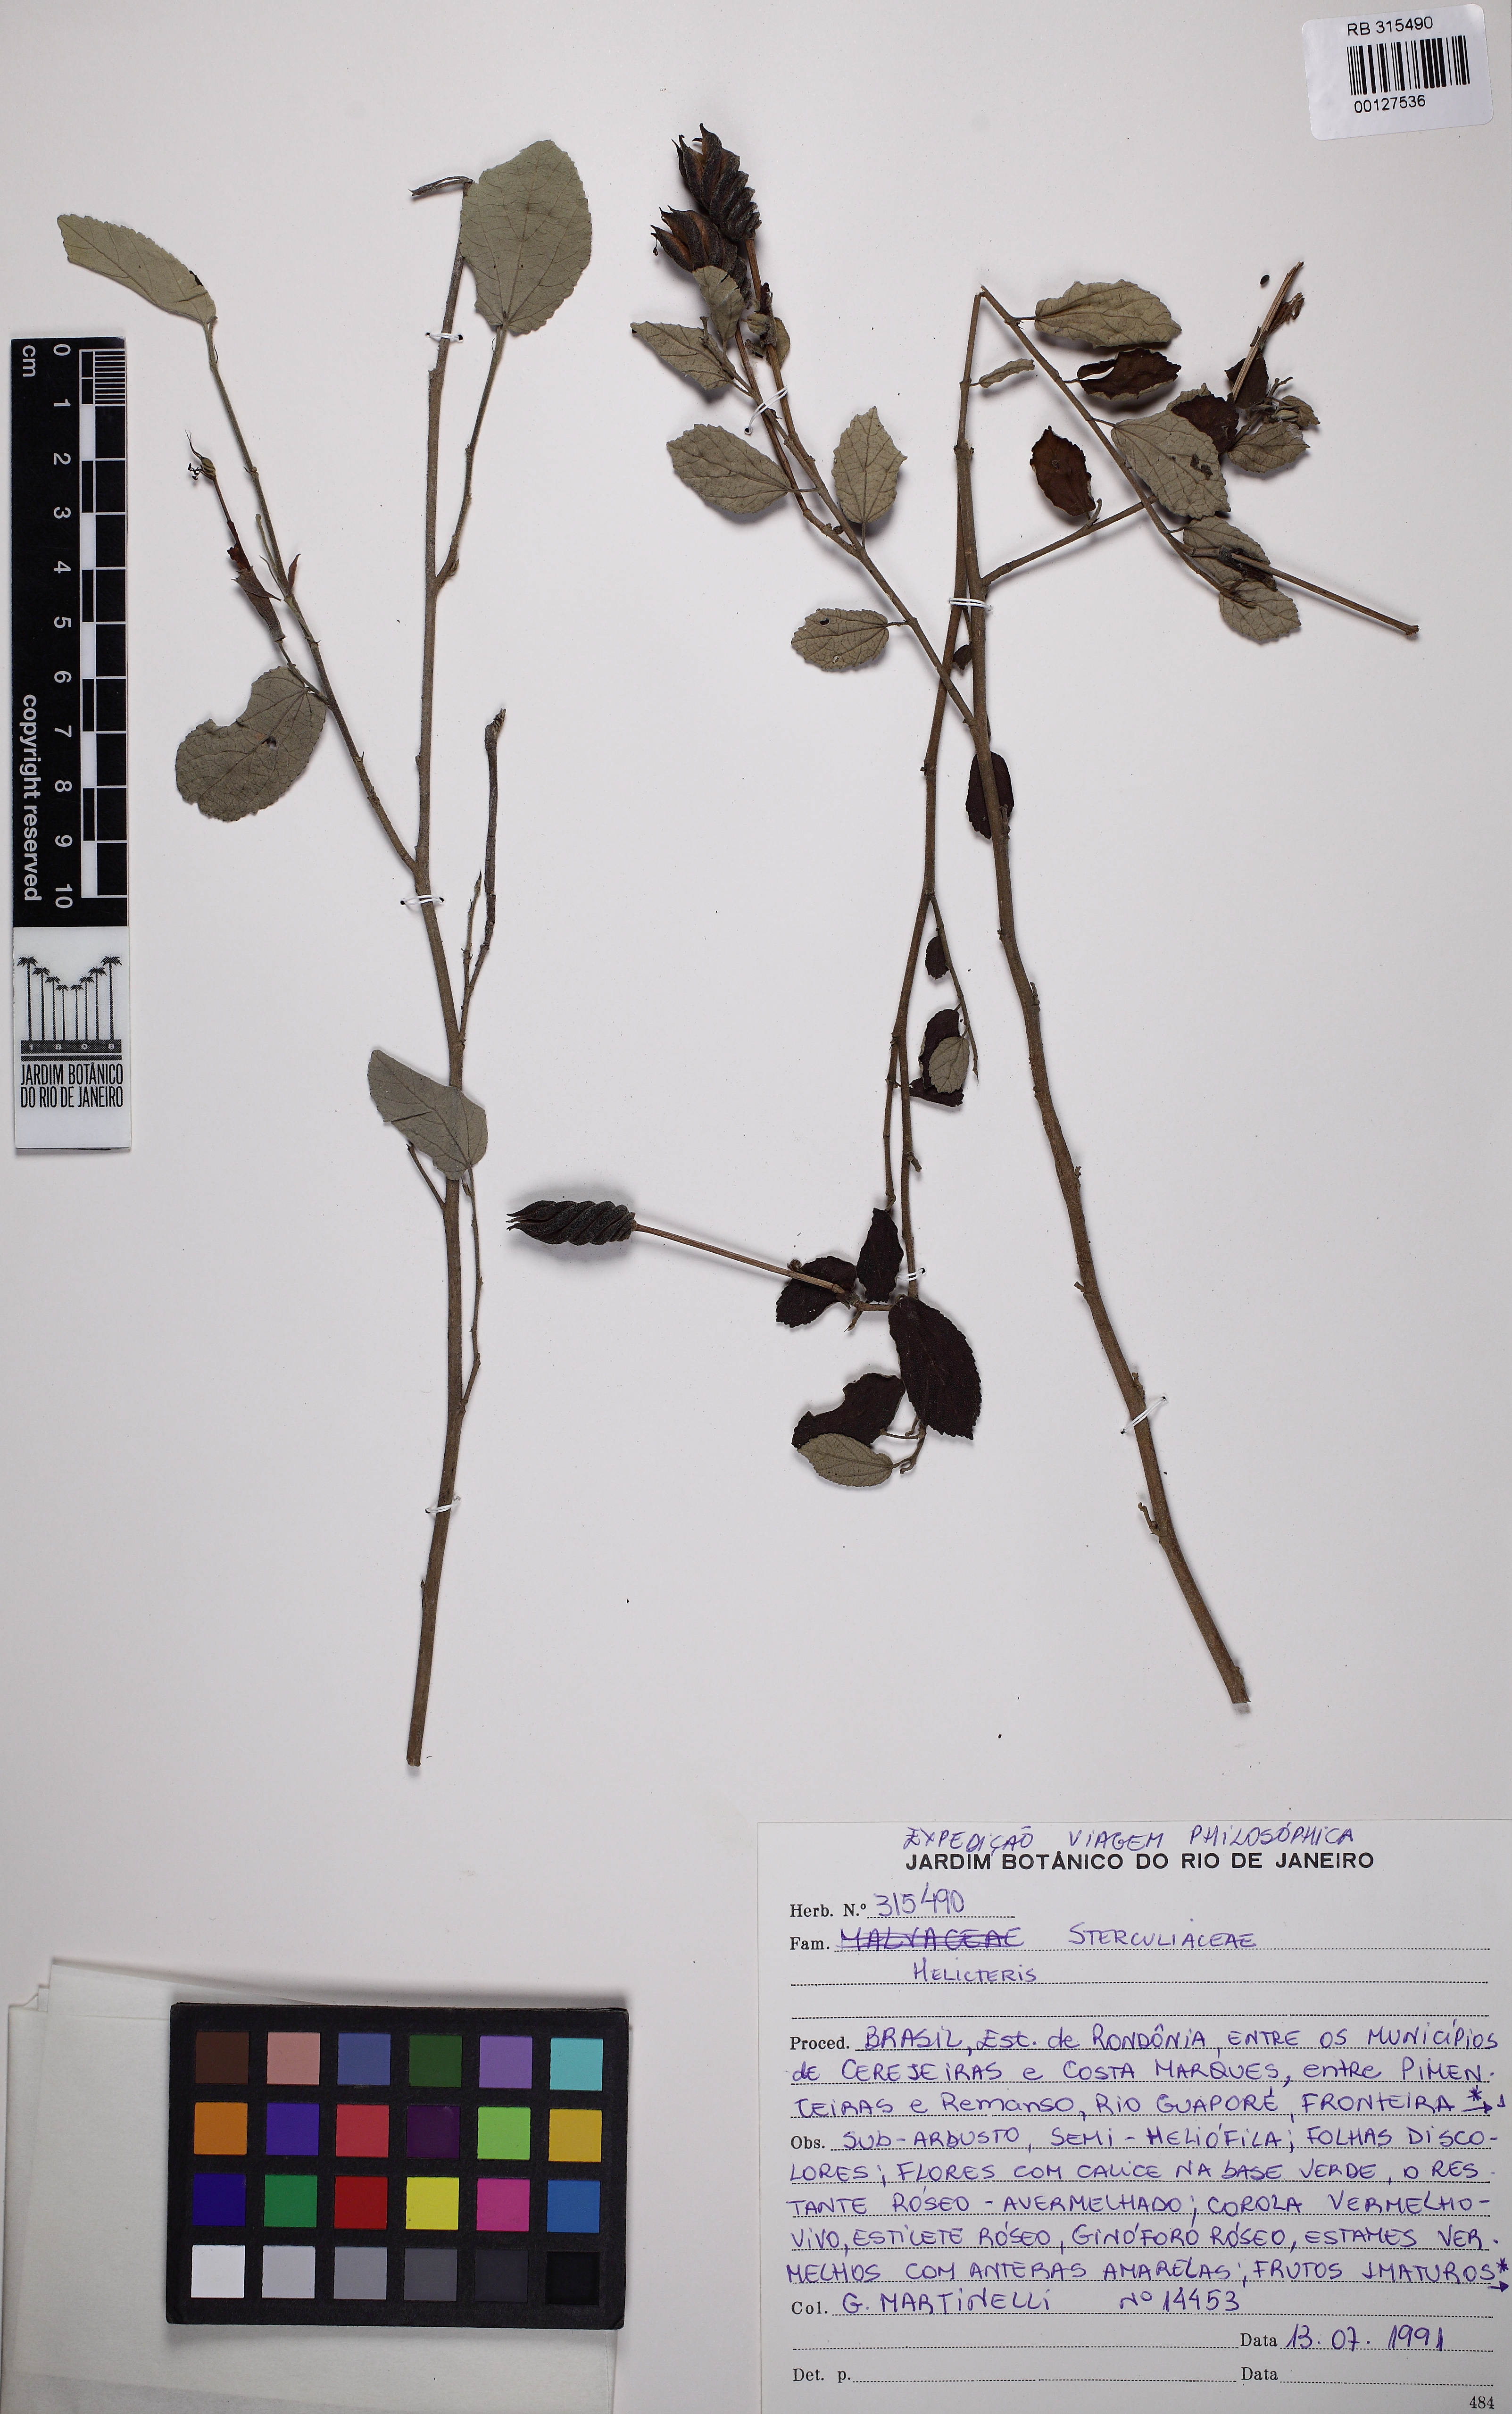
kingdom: Plantae
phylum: Tracheophyta
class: Magnoliopsida
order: Lamiales
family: Lamiaceae
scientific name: Lamiaceae
